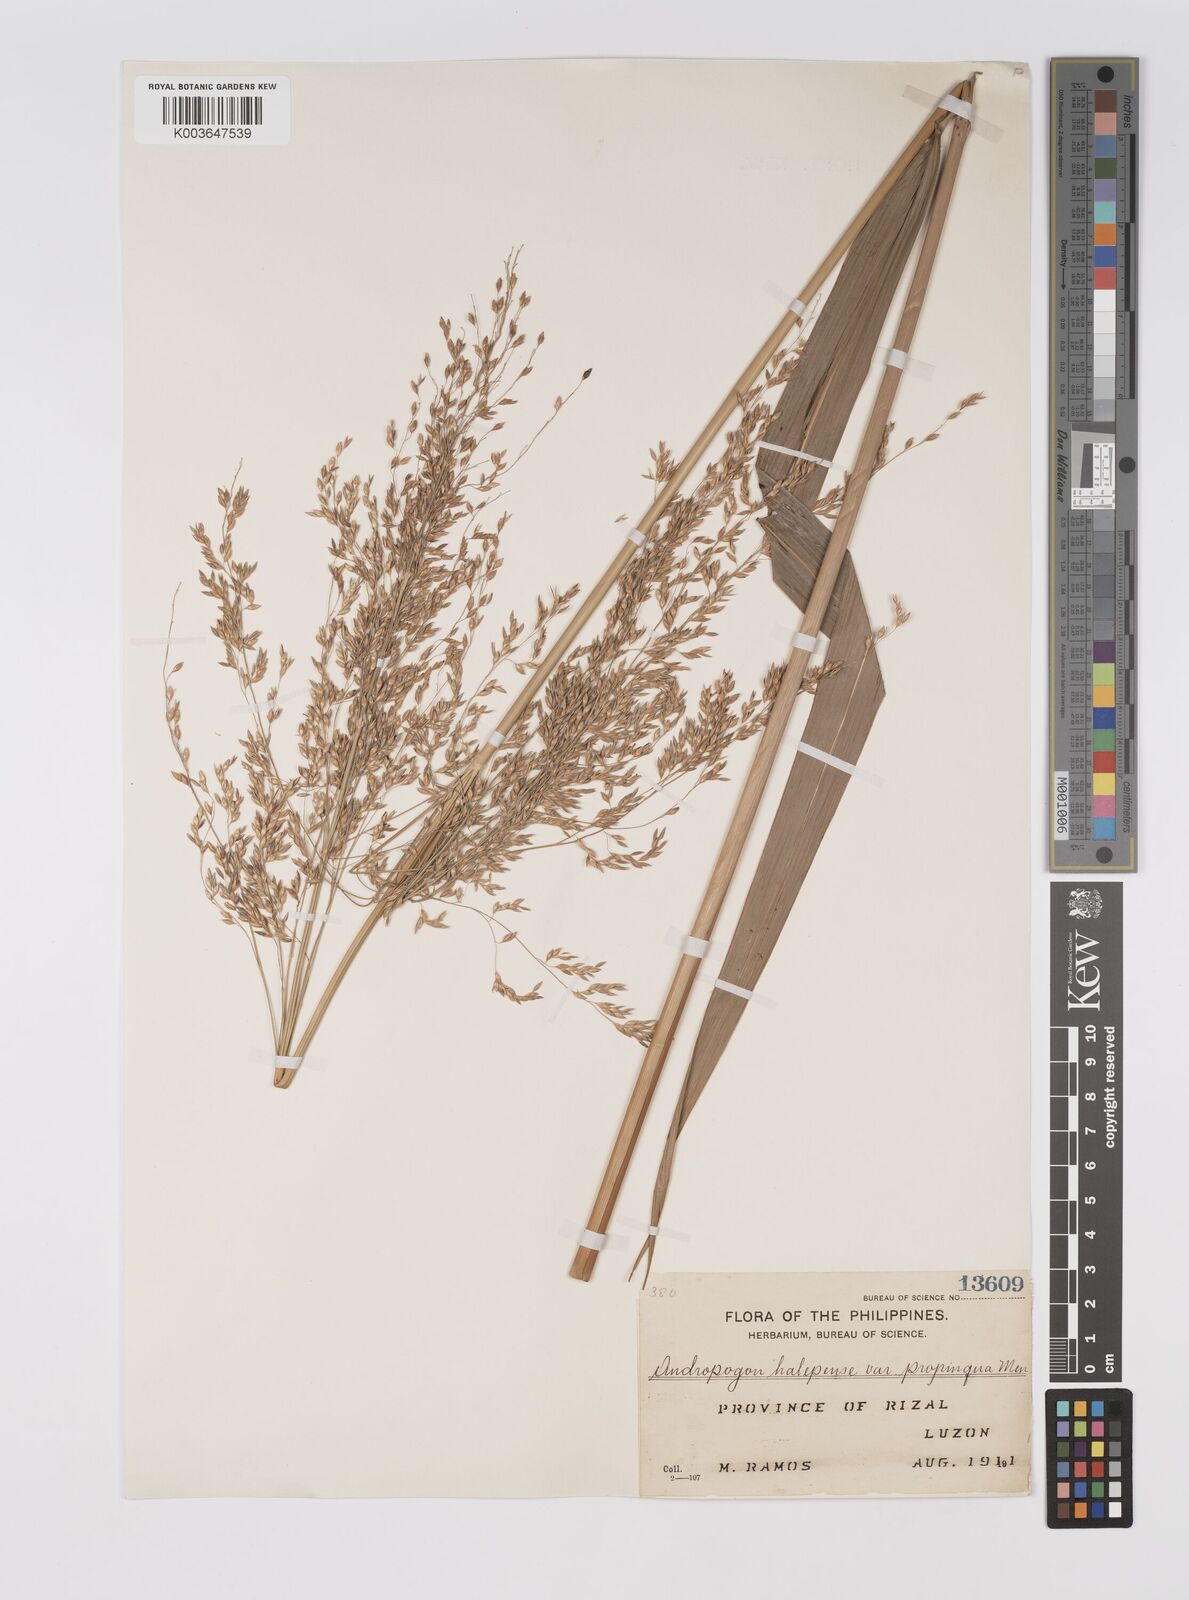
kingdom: Plantae
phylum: Tracheophyta
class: Liliopsida
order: Poales
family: Poaceae
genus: Sorghum
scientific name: Sorghum propinquum
